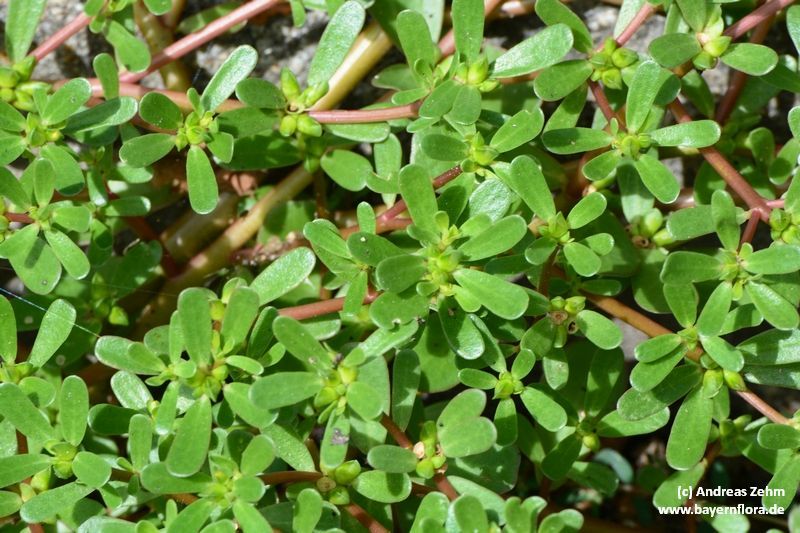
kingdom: Plantae
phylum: Tracheophyta
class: Magnoliopsida
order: Caryophyllales
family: Portulacaceae
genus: Portulaca
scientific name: Portulaca oleracea
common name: Common purslane
